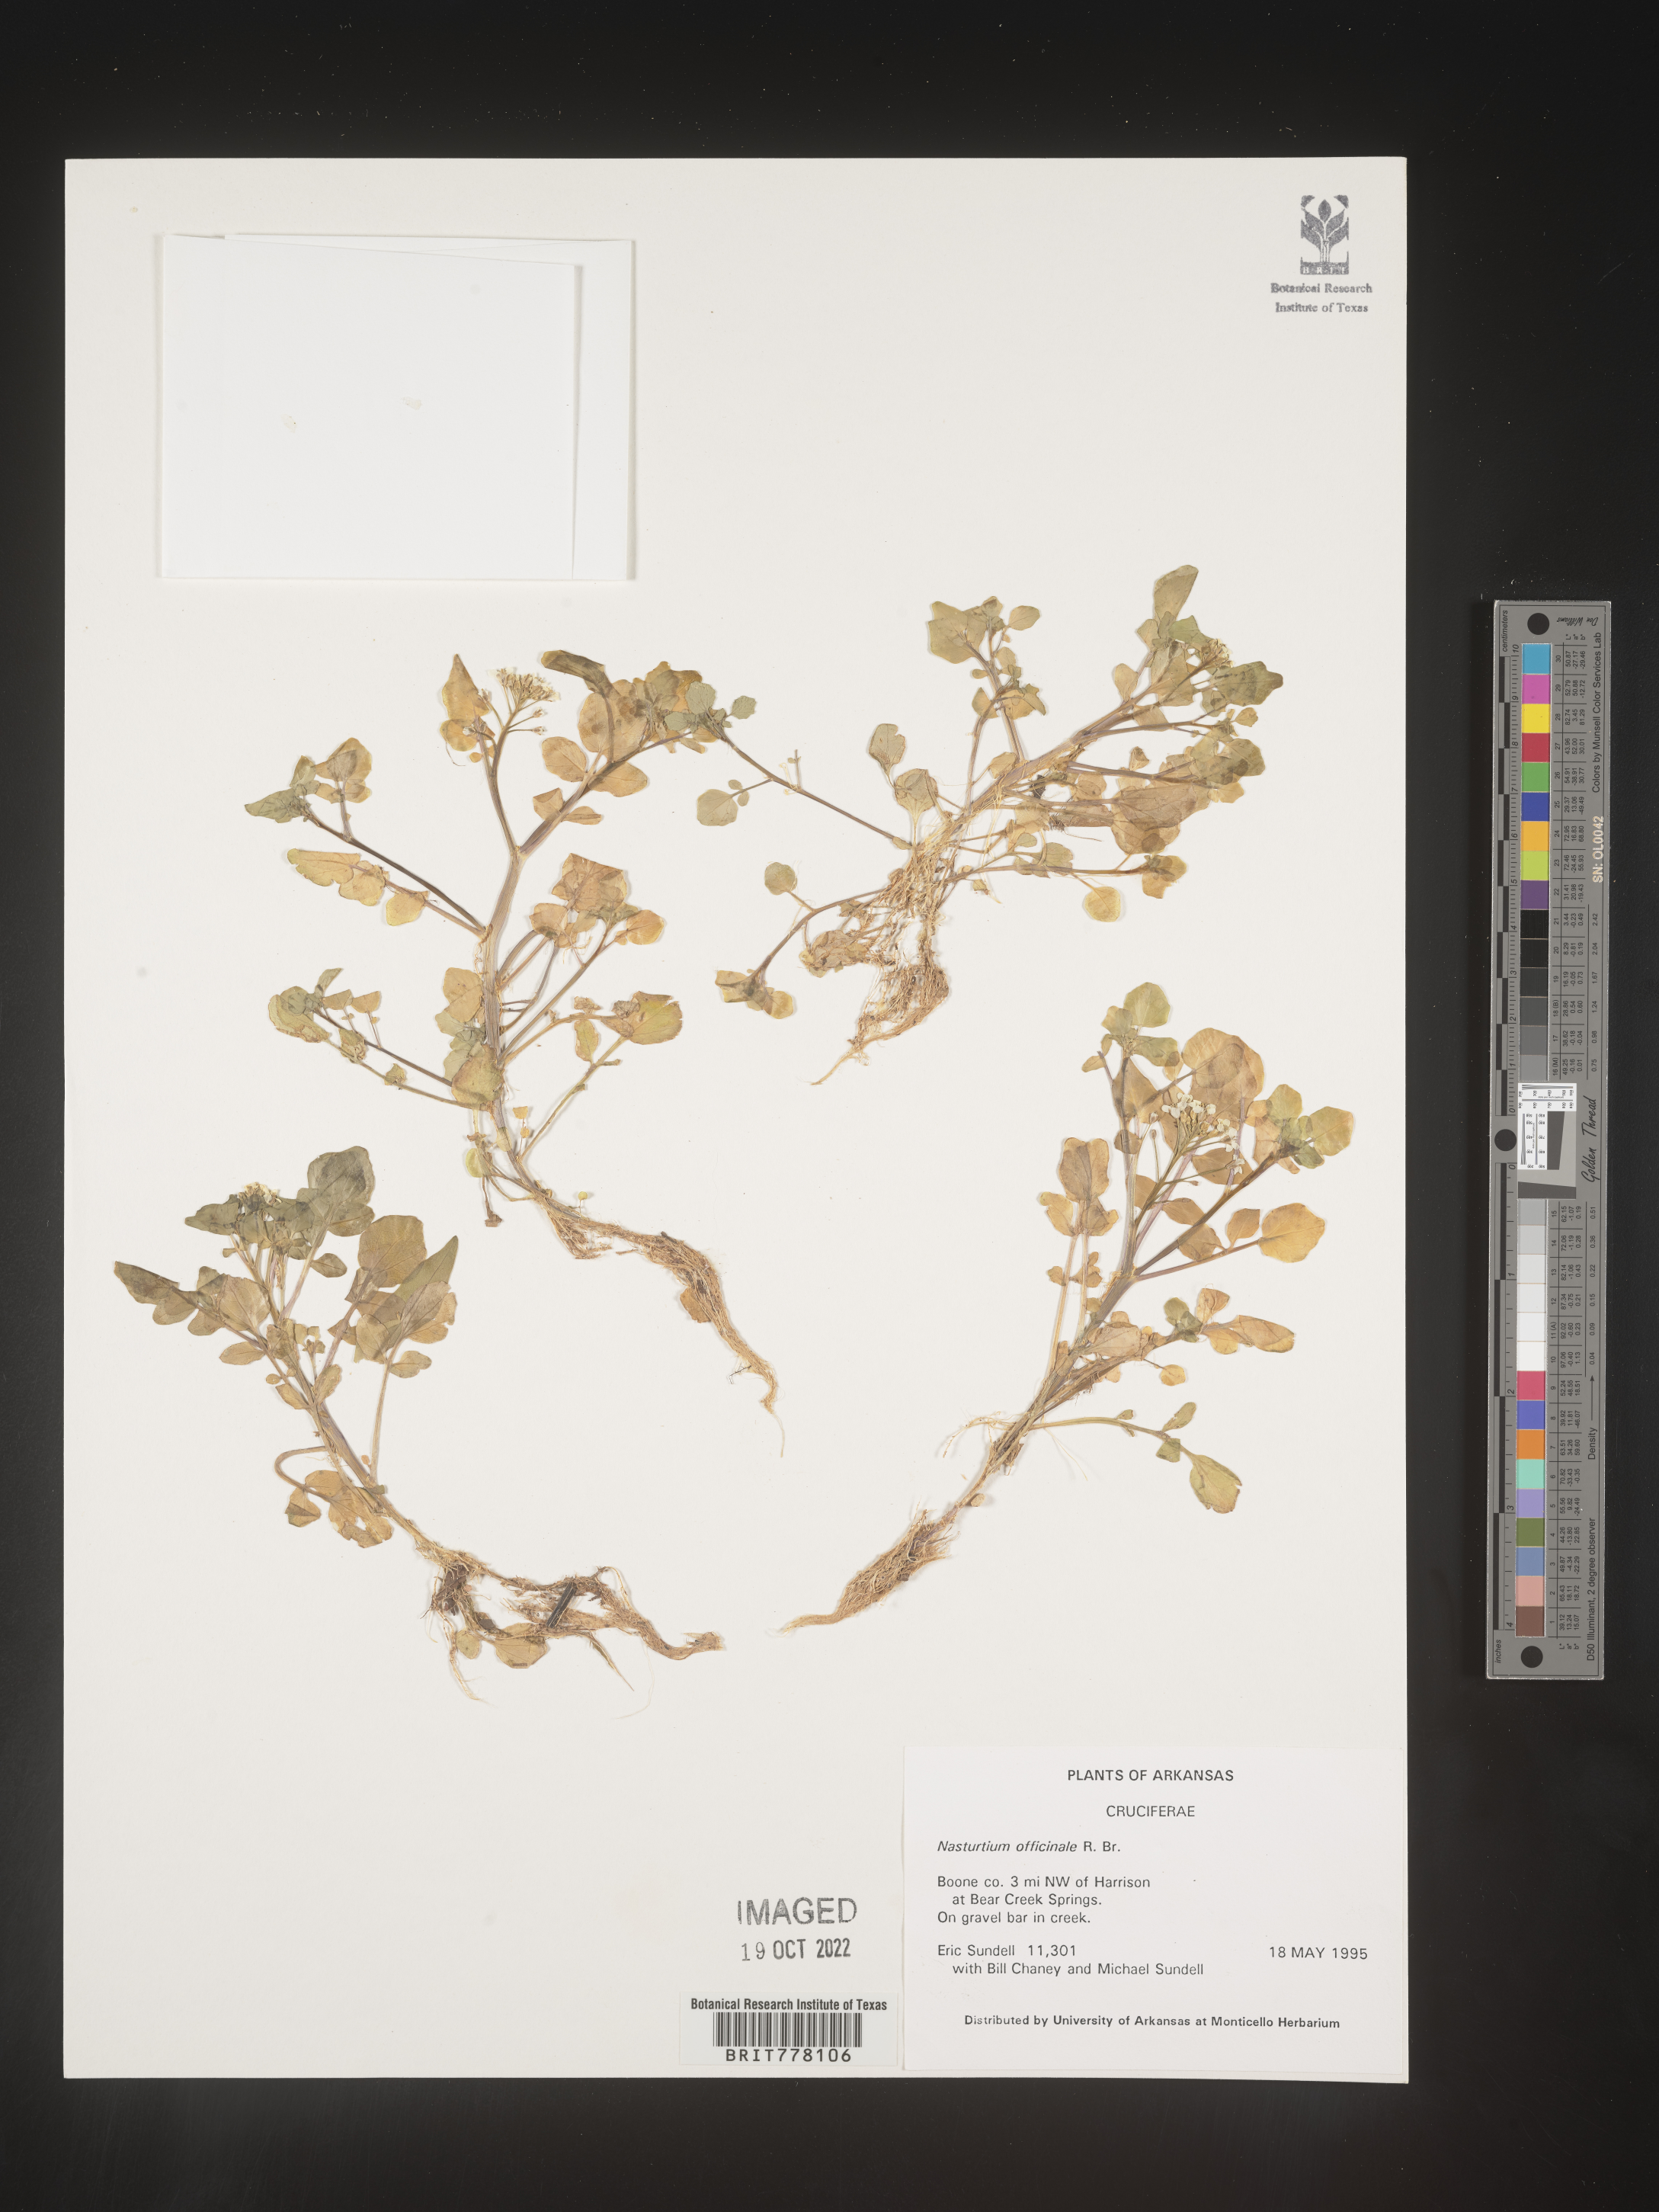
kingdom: Plantae
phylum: Tracheophyta
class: Magnoliopsida
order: Brassicales
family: Brassicaceae
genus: Nasturtium
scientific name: Nasturtium
